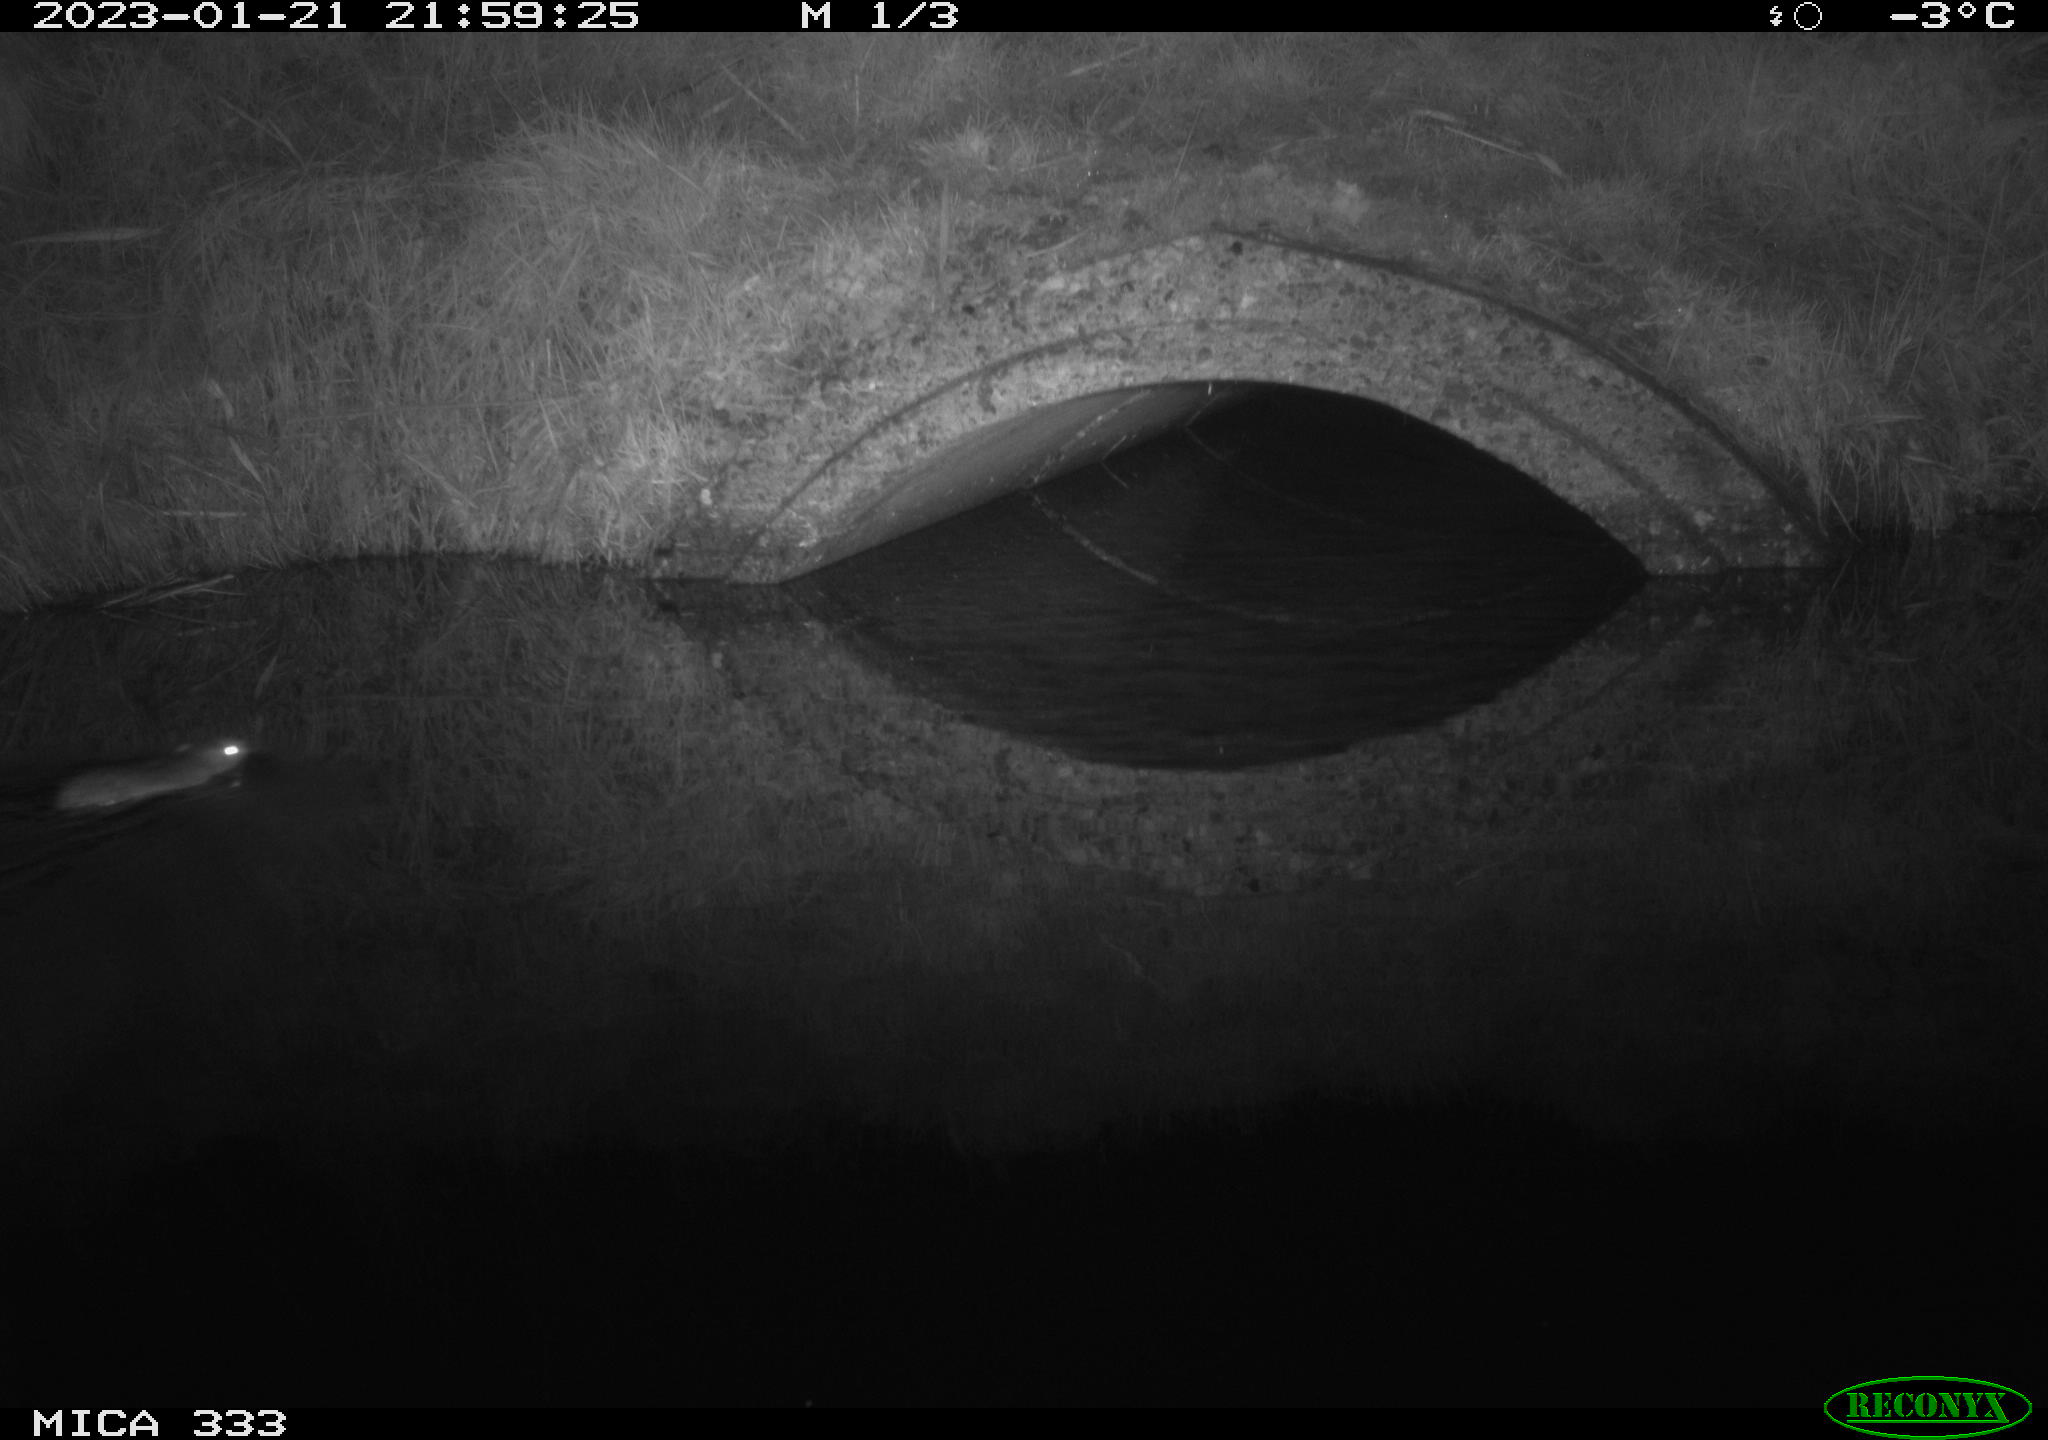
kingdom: Animalia
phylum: Chordata
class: Mammalia
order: Rodentia
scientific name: Rodentia
